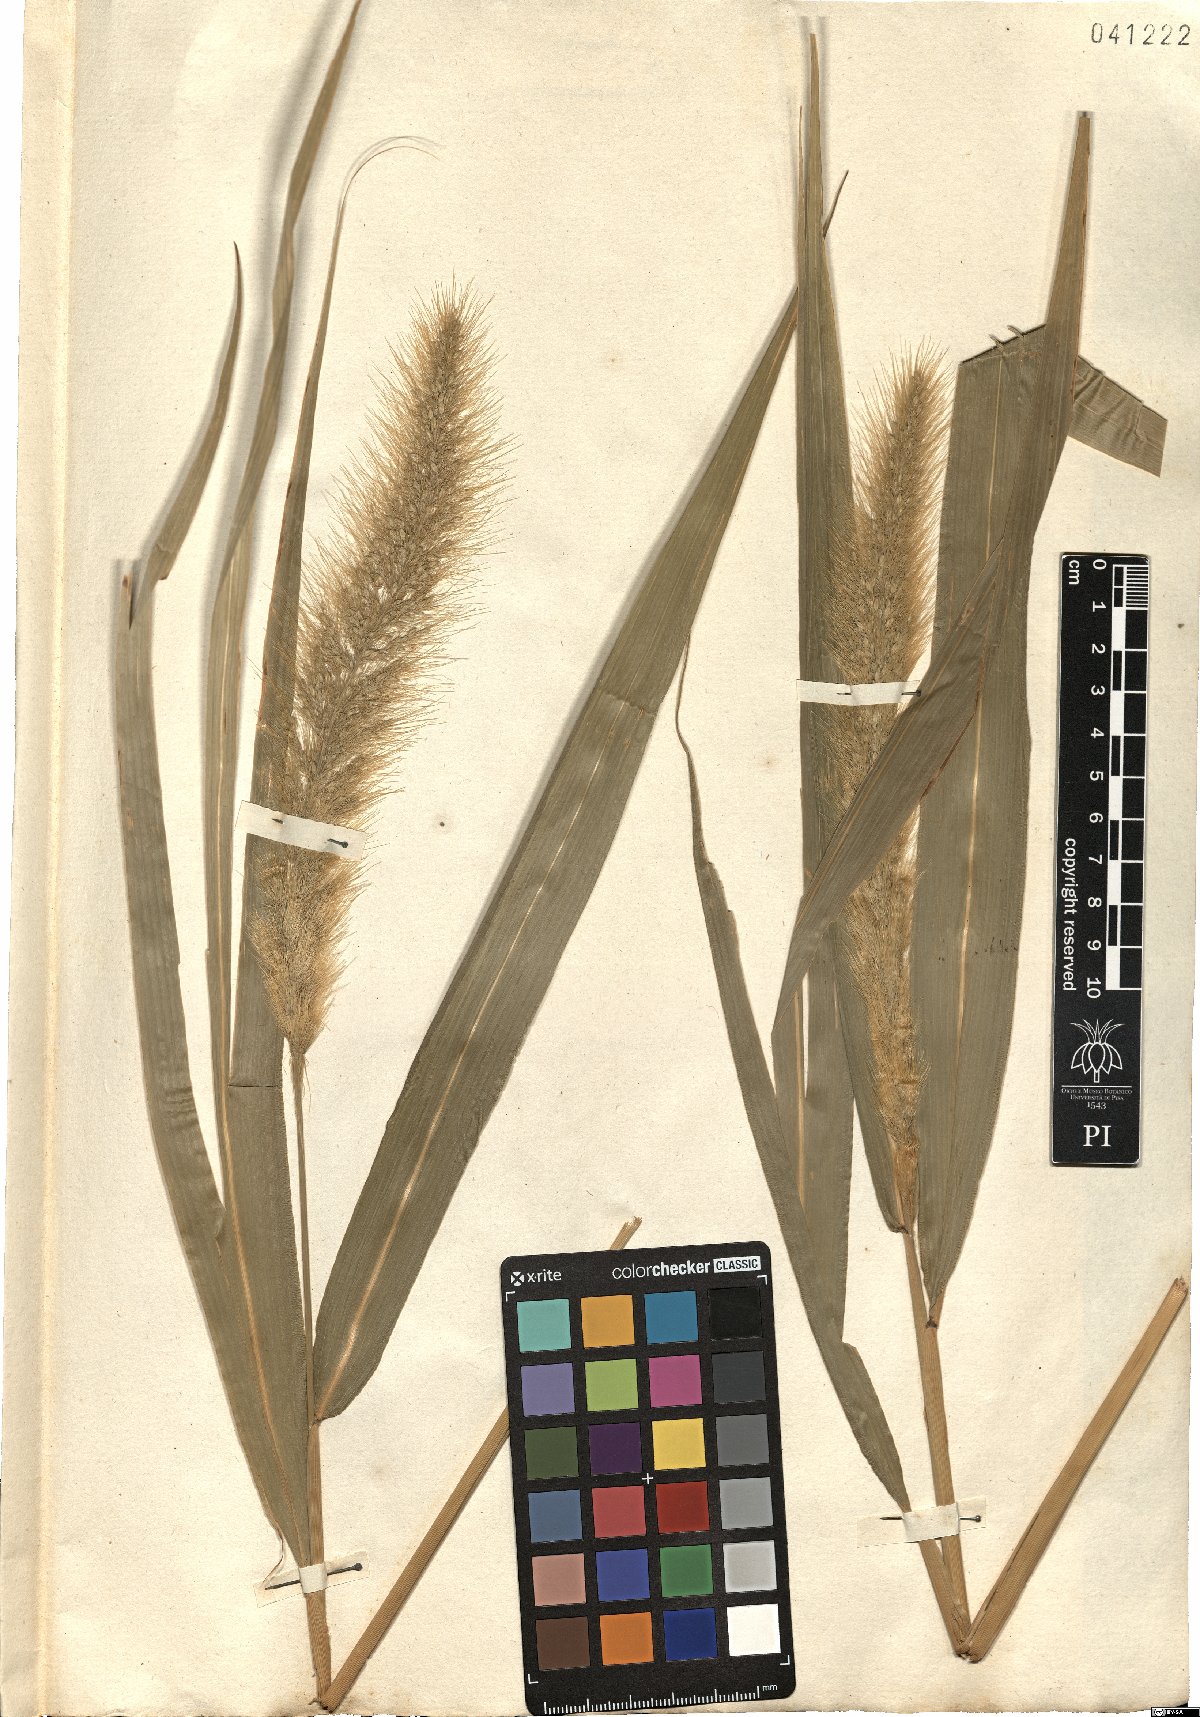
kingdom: Plantae
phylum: Tracheophyta
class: Liliopsida
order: Poales
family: Poaceae
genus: Setaria
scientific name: Setaria macrostachya
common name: Plains bristle grass
